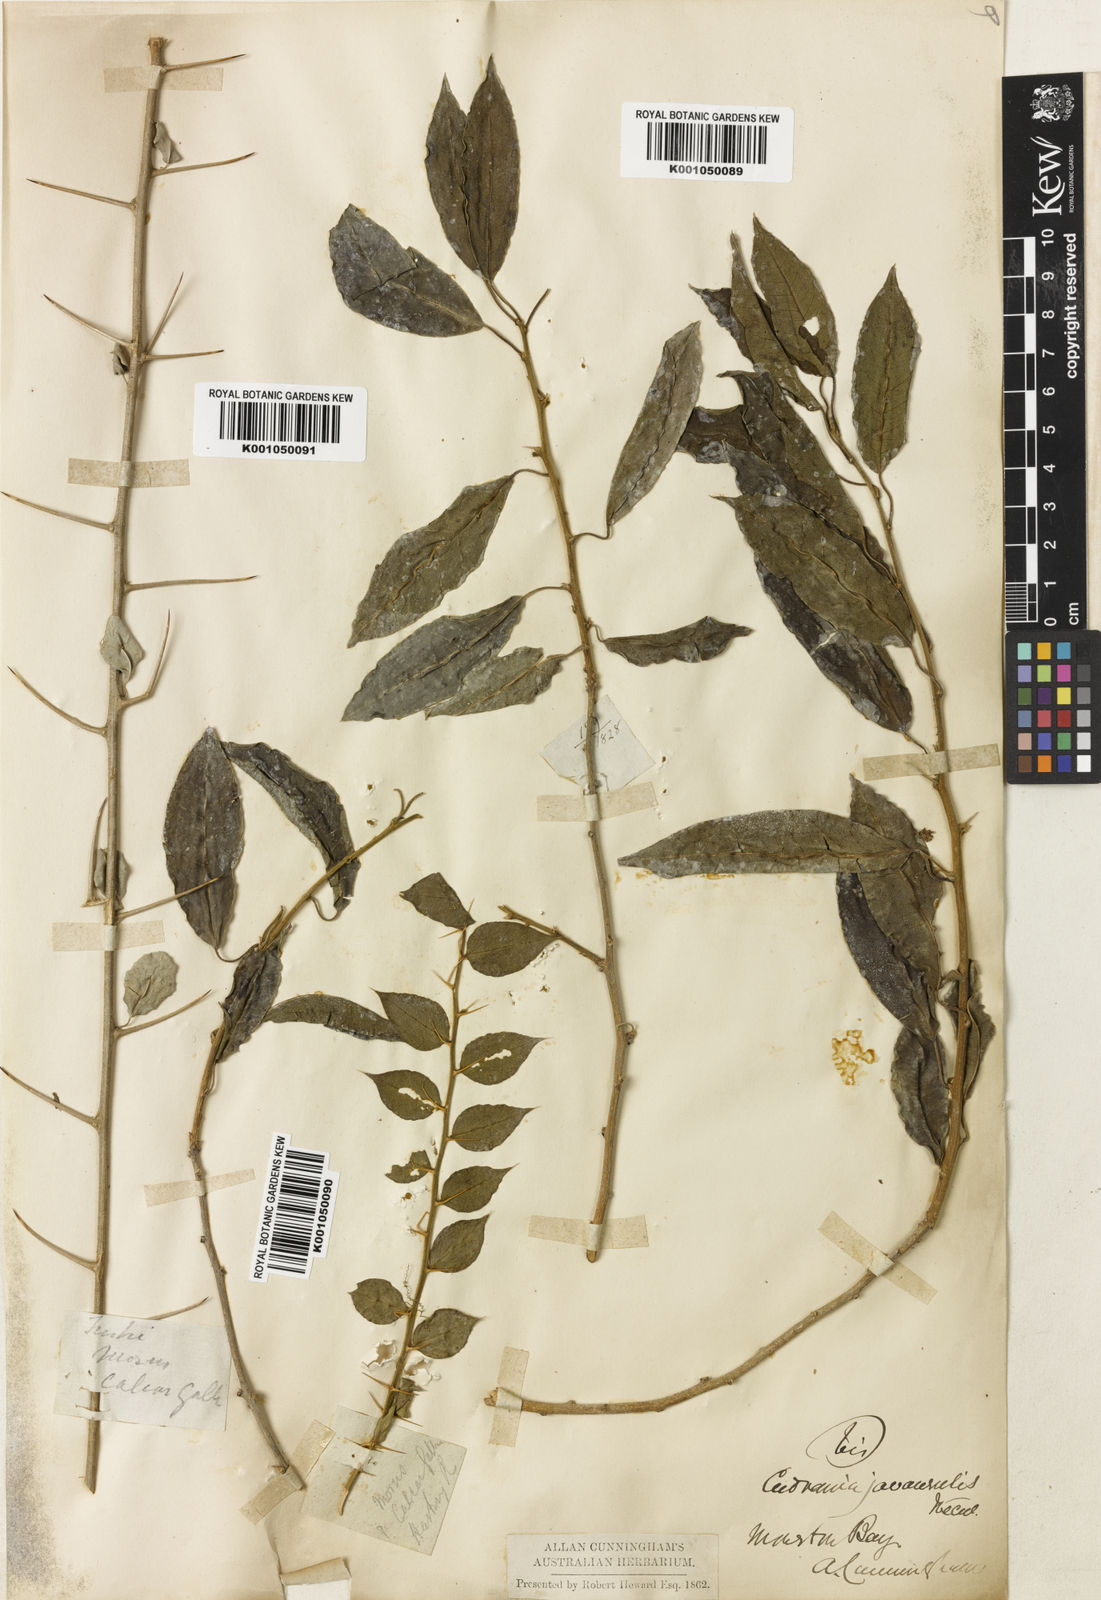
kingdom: Plantae
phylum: Tracheophyta
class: Magnoliopsida
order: Rosales
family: Moraceae
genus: Maclura
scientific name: Maclura cochinchinensis
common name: Cockspurthorn
